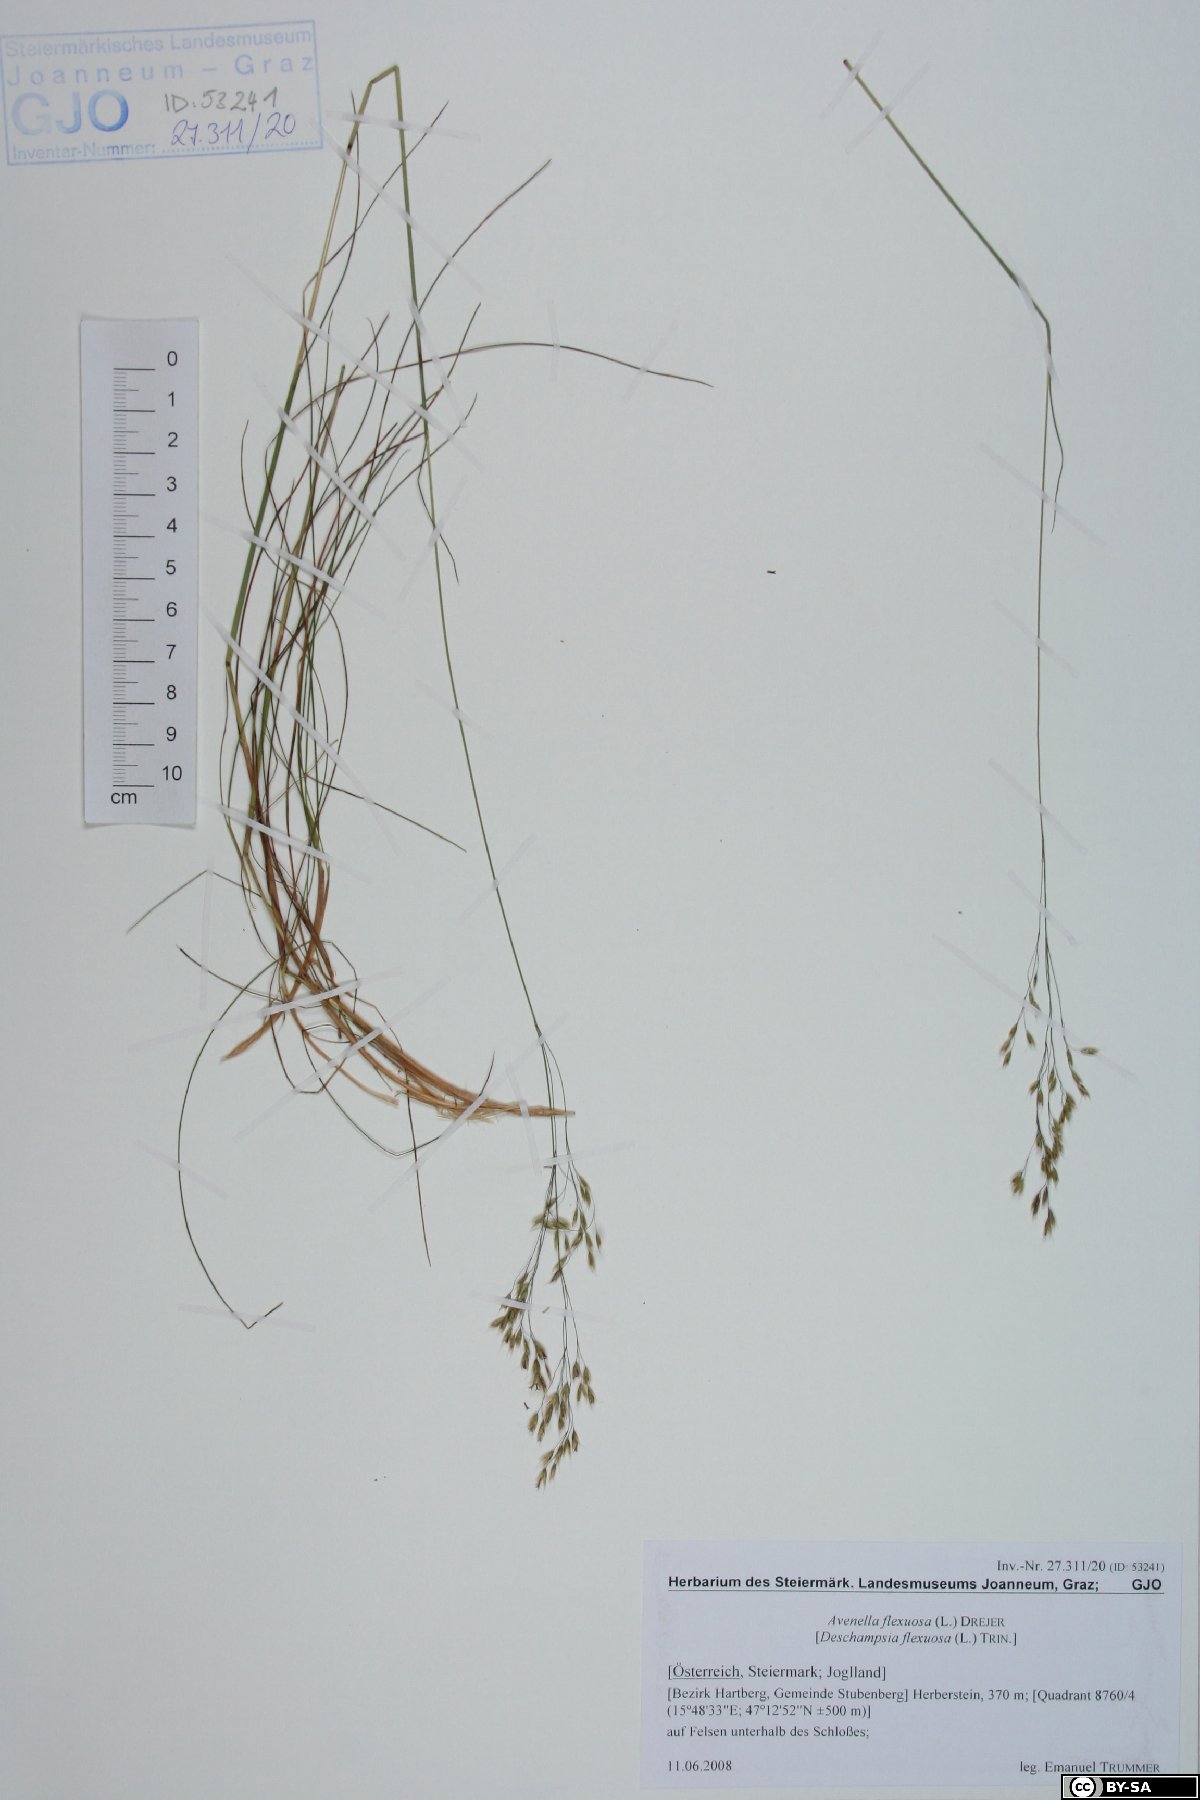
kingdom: Plantae
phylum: Tracheophyta
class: Liliopsida
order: Poales
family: Poaceae
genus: Avenella
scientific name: Avenella flexuosa
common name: Wavy hairgrass
